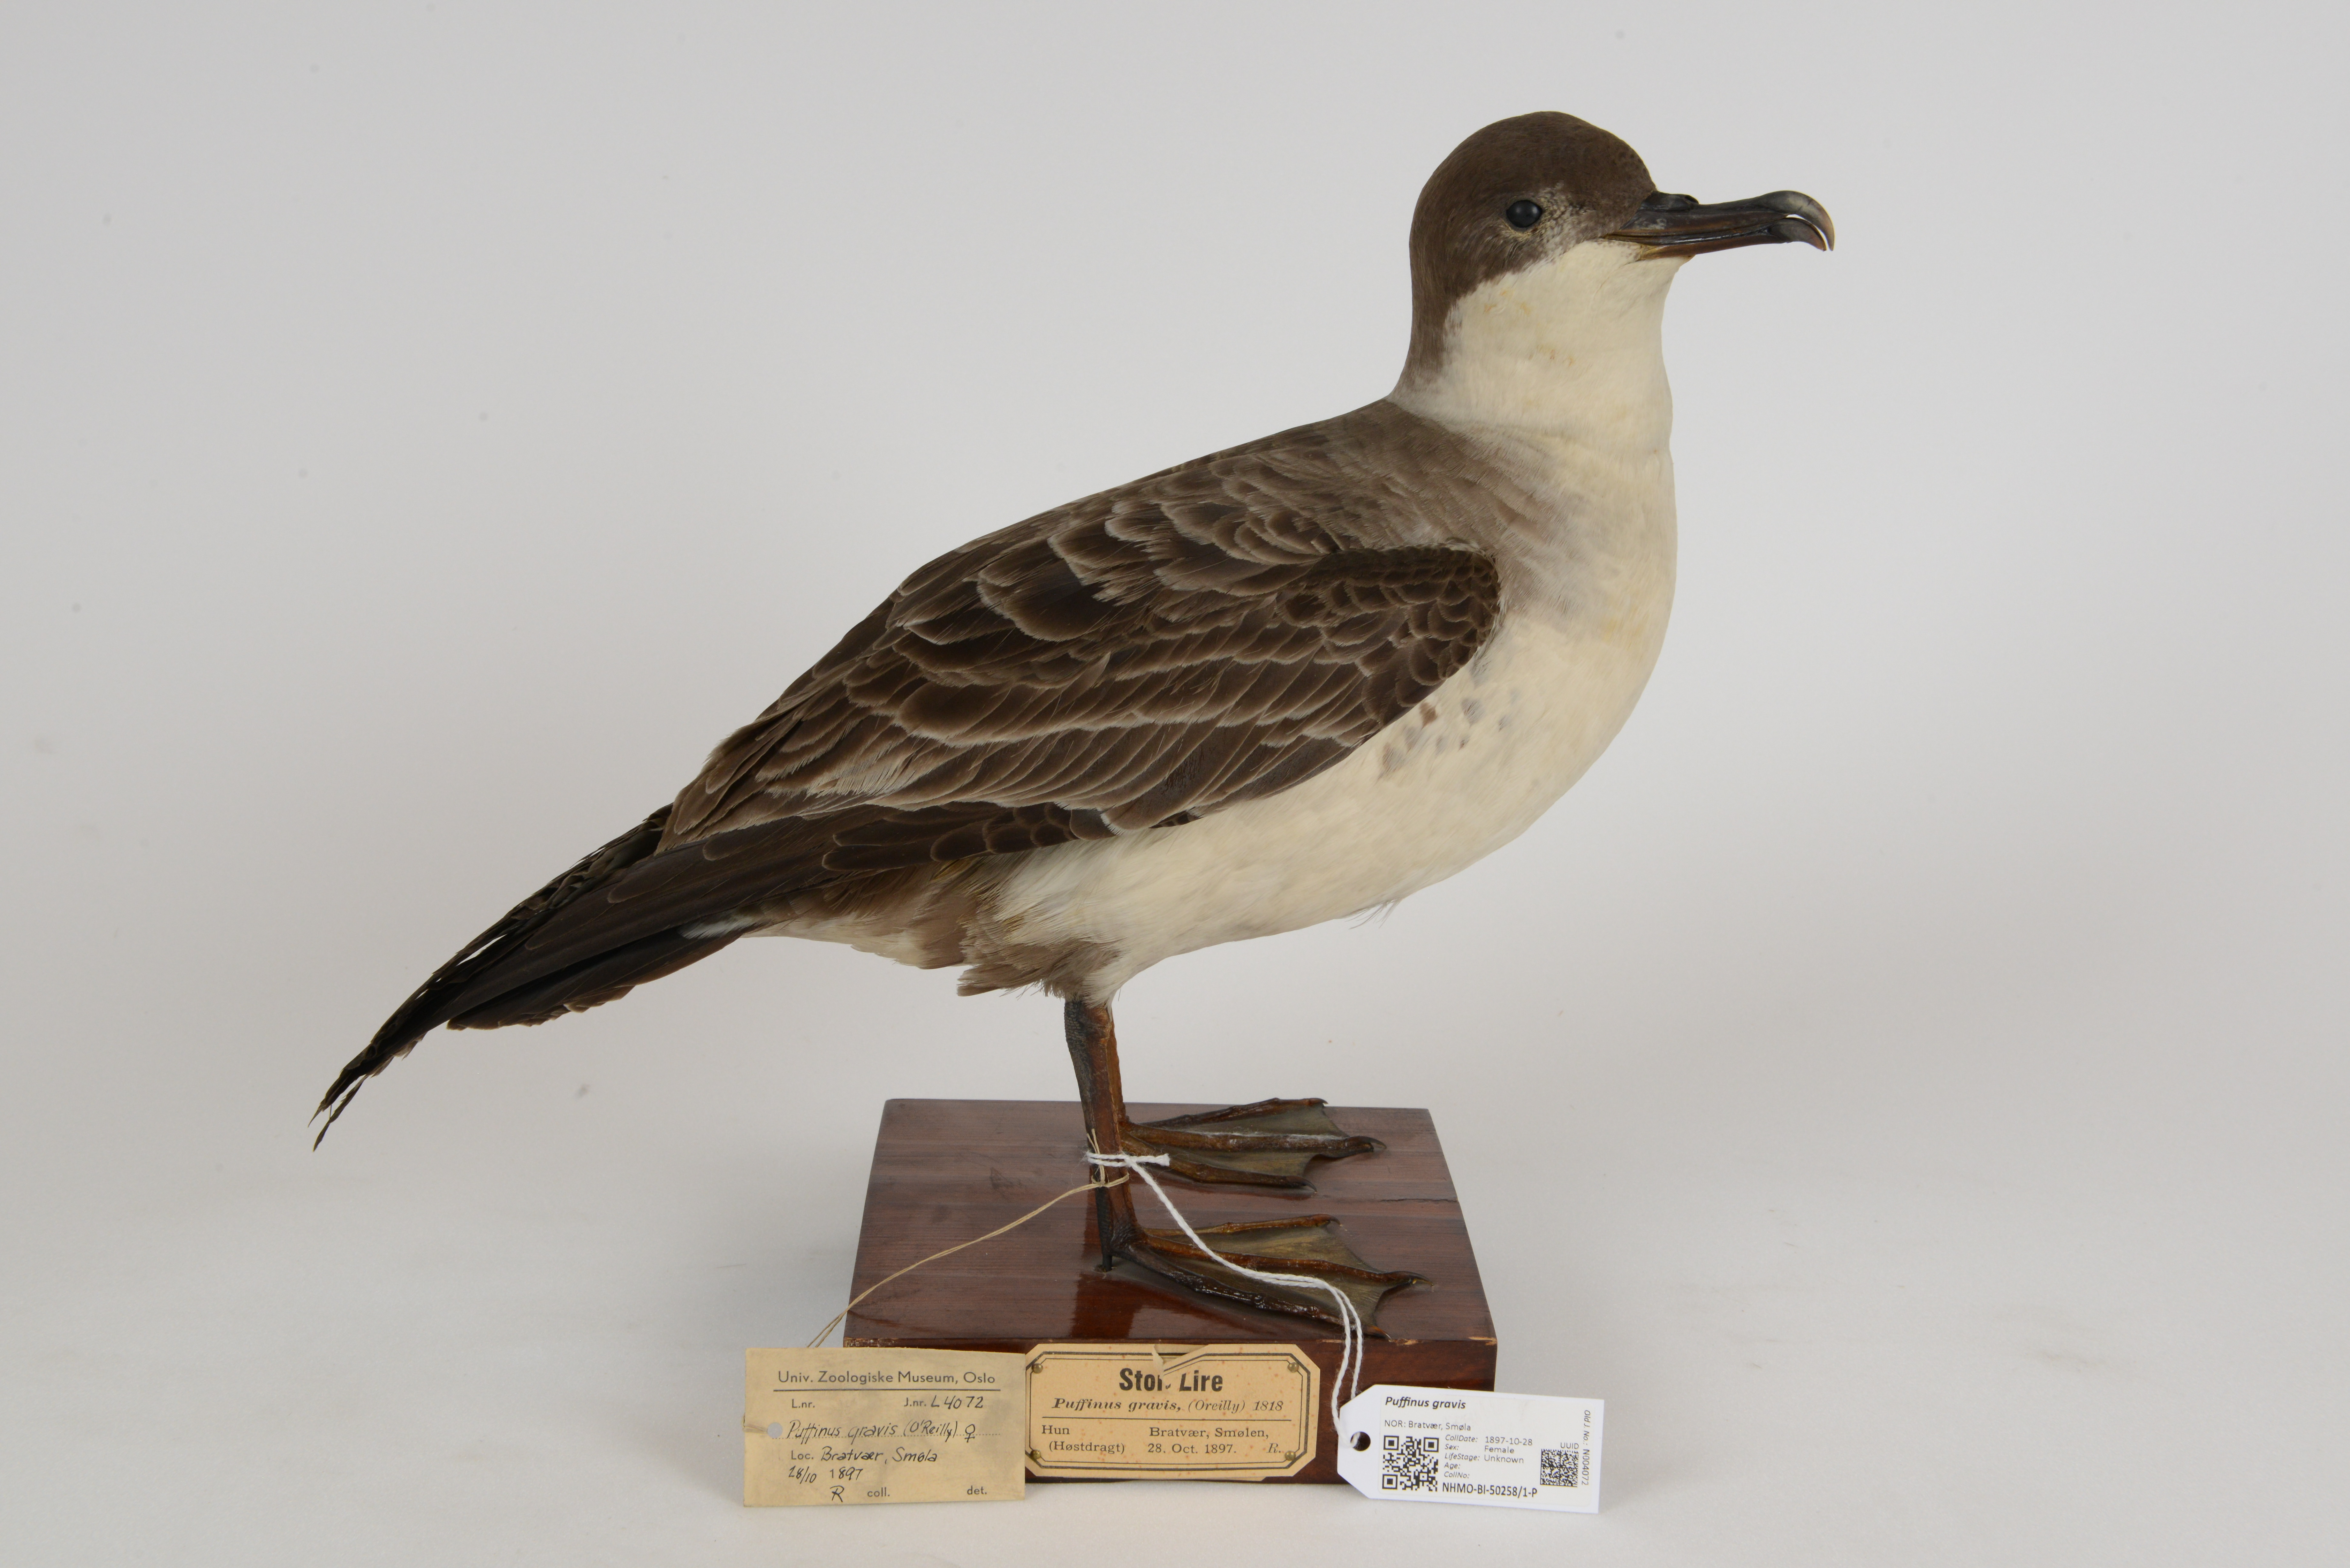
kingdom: Animalia
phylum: Chordata
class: Aves
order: Procellariiformes
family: Procellariidae
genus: Puffinus
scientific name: Puffinus gravis
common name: Great shearwater
